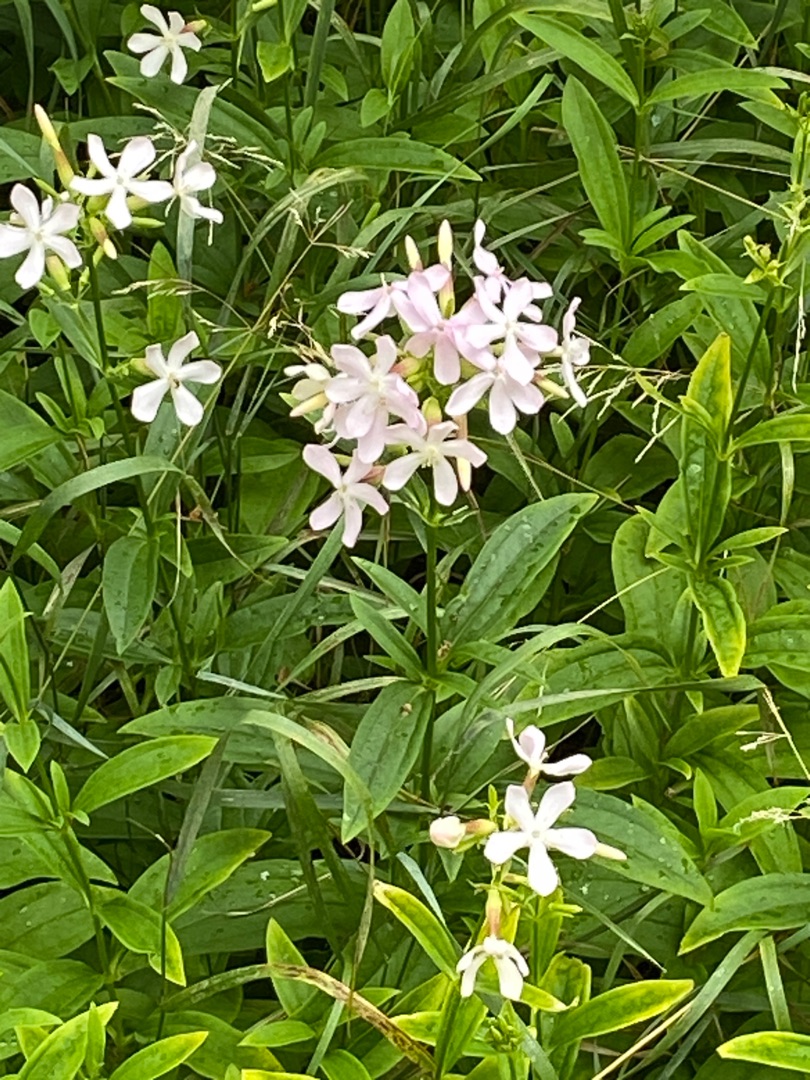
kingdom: Plantae
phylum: Tracheophyta
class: Magnoliopsida
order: Caryophyllales
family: Caryophyllaceae
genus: Saponaria
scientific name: Saponaria officinalis
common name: Sæbeurt
